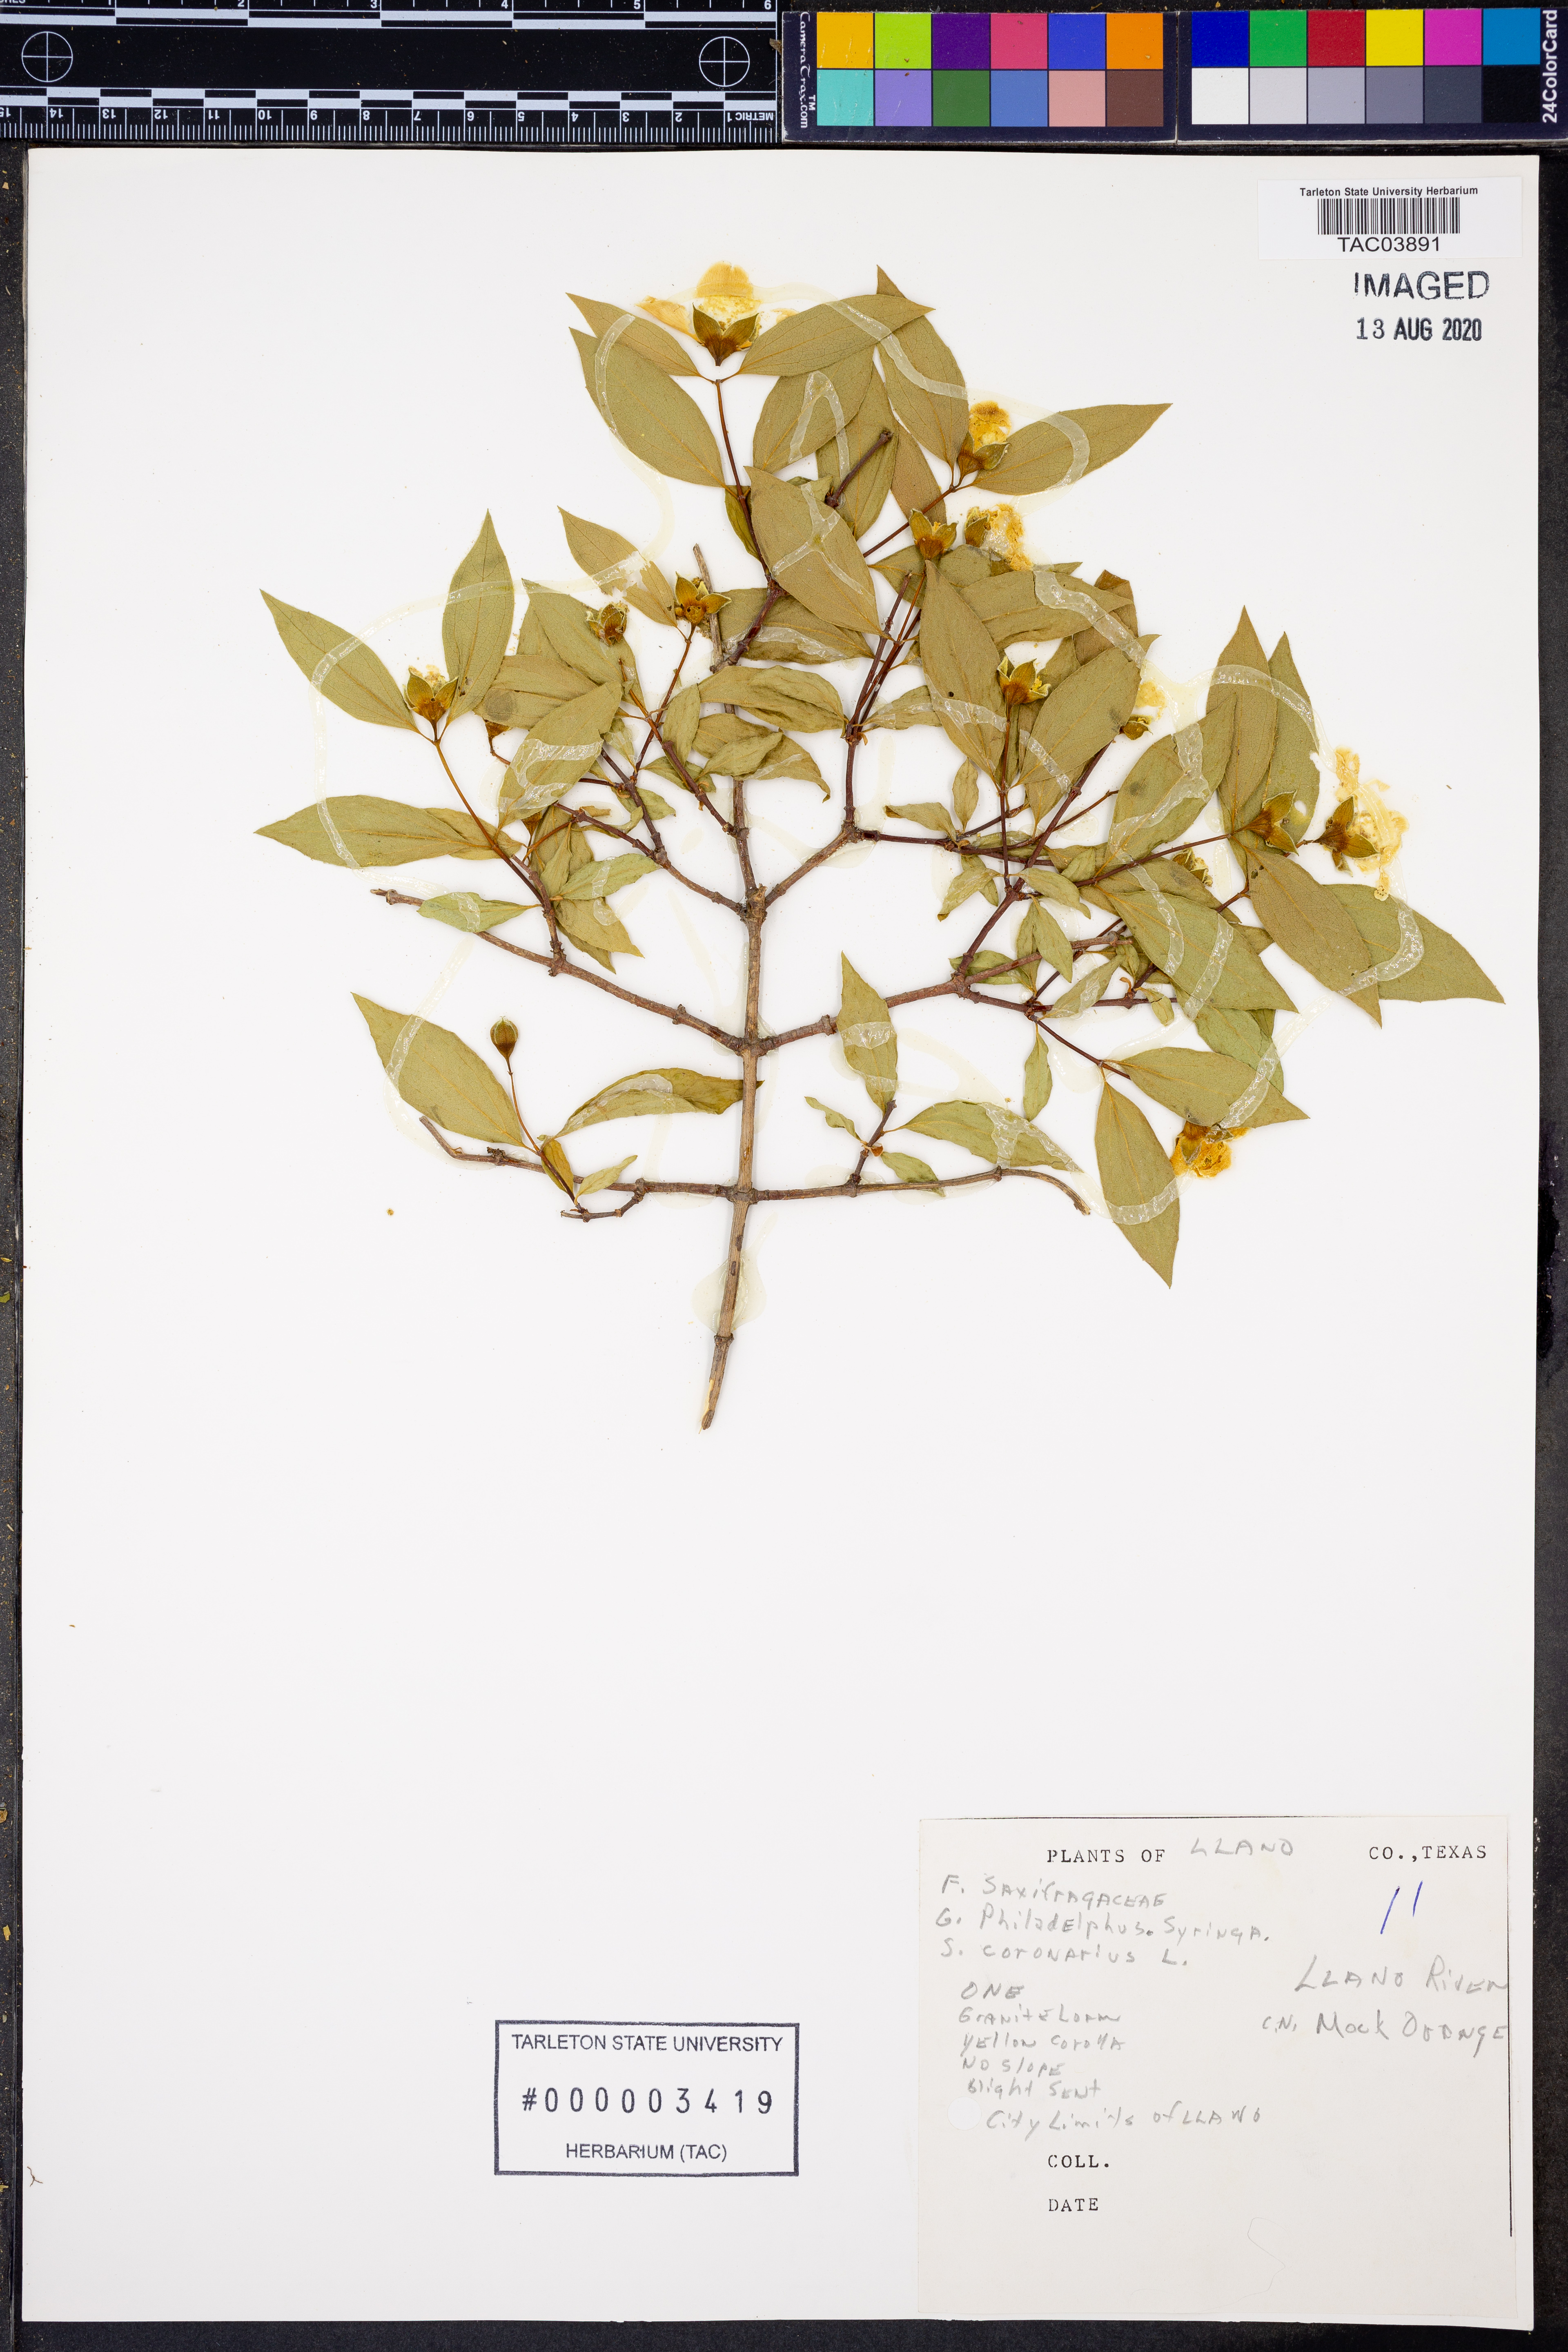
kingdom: Plantae
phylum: Tracheophyta
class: Magnoliopsida
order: Cornales
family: Hydrangeaceae
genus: Philadelphus
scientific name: Philadelphus coronarius
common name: Mock orange
